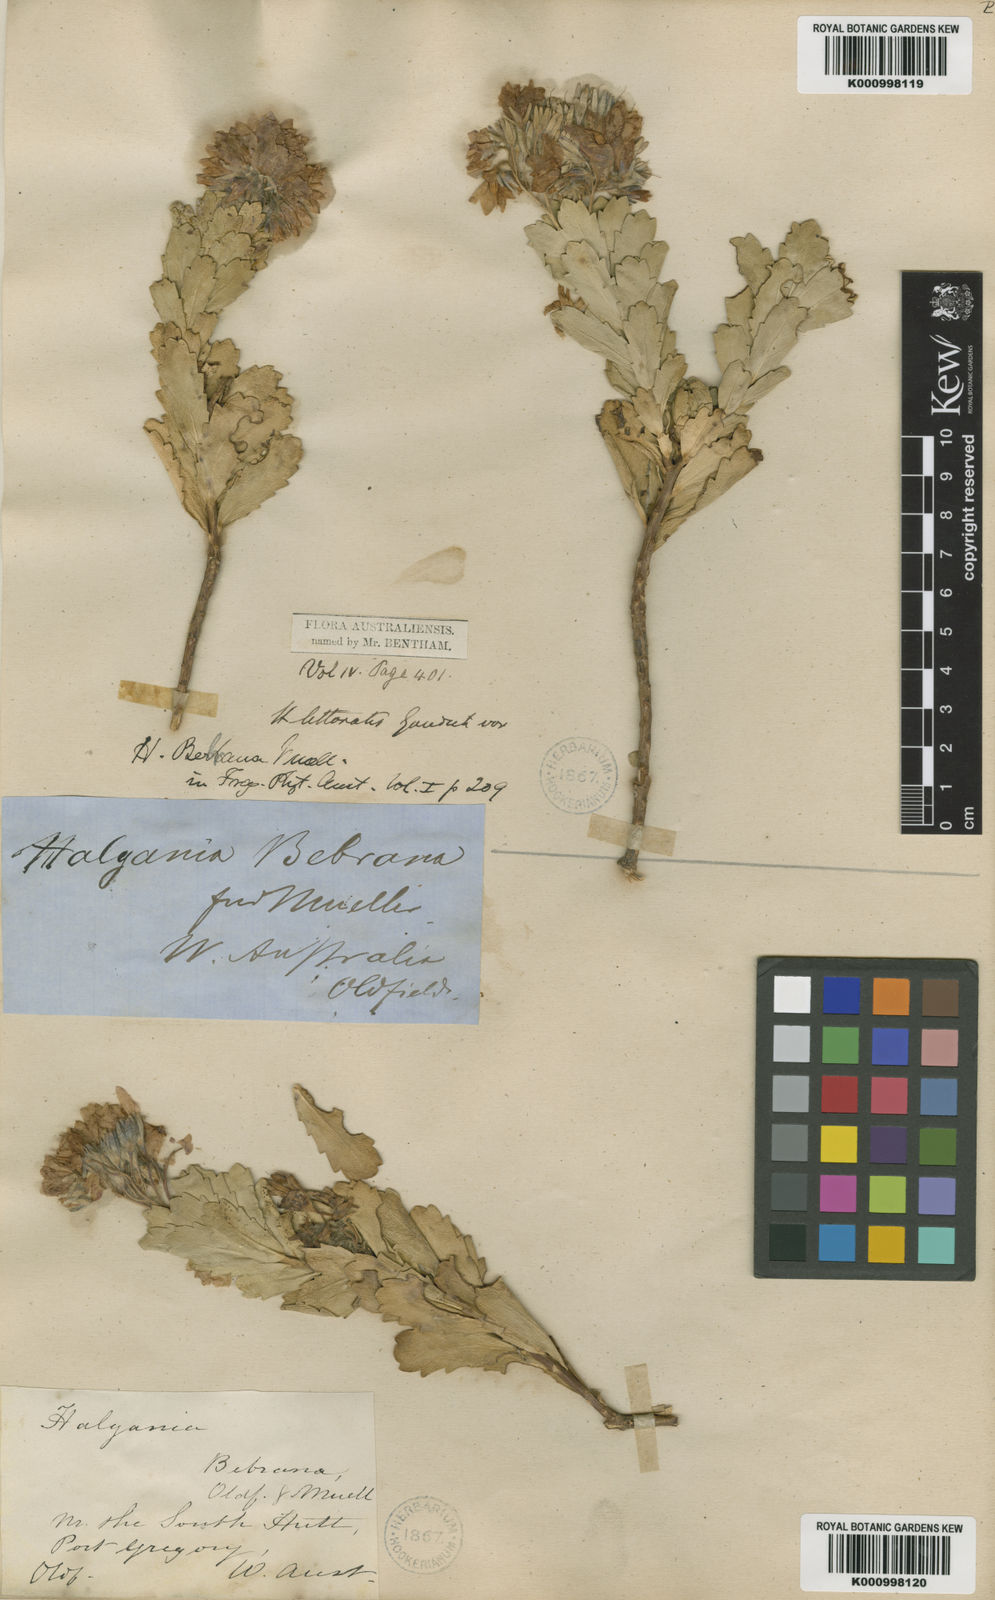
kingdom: Plantae
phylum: Tracheophyta
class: Magnoliopsida
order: Boraginales
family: Ehretiaceae
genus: Halgania
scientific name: Halgania bebrana
